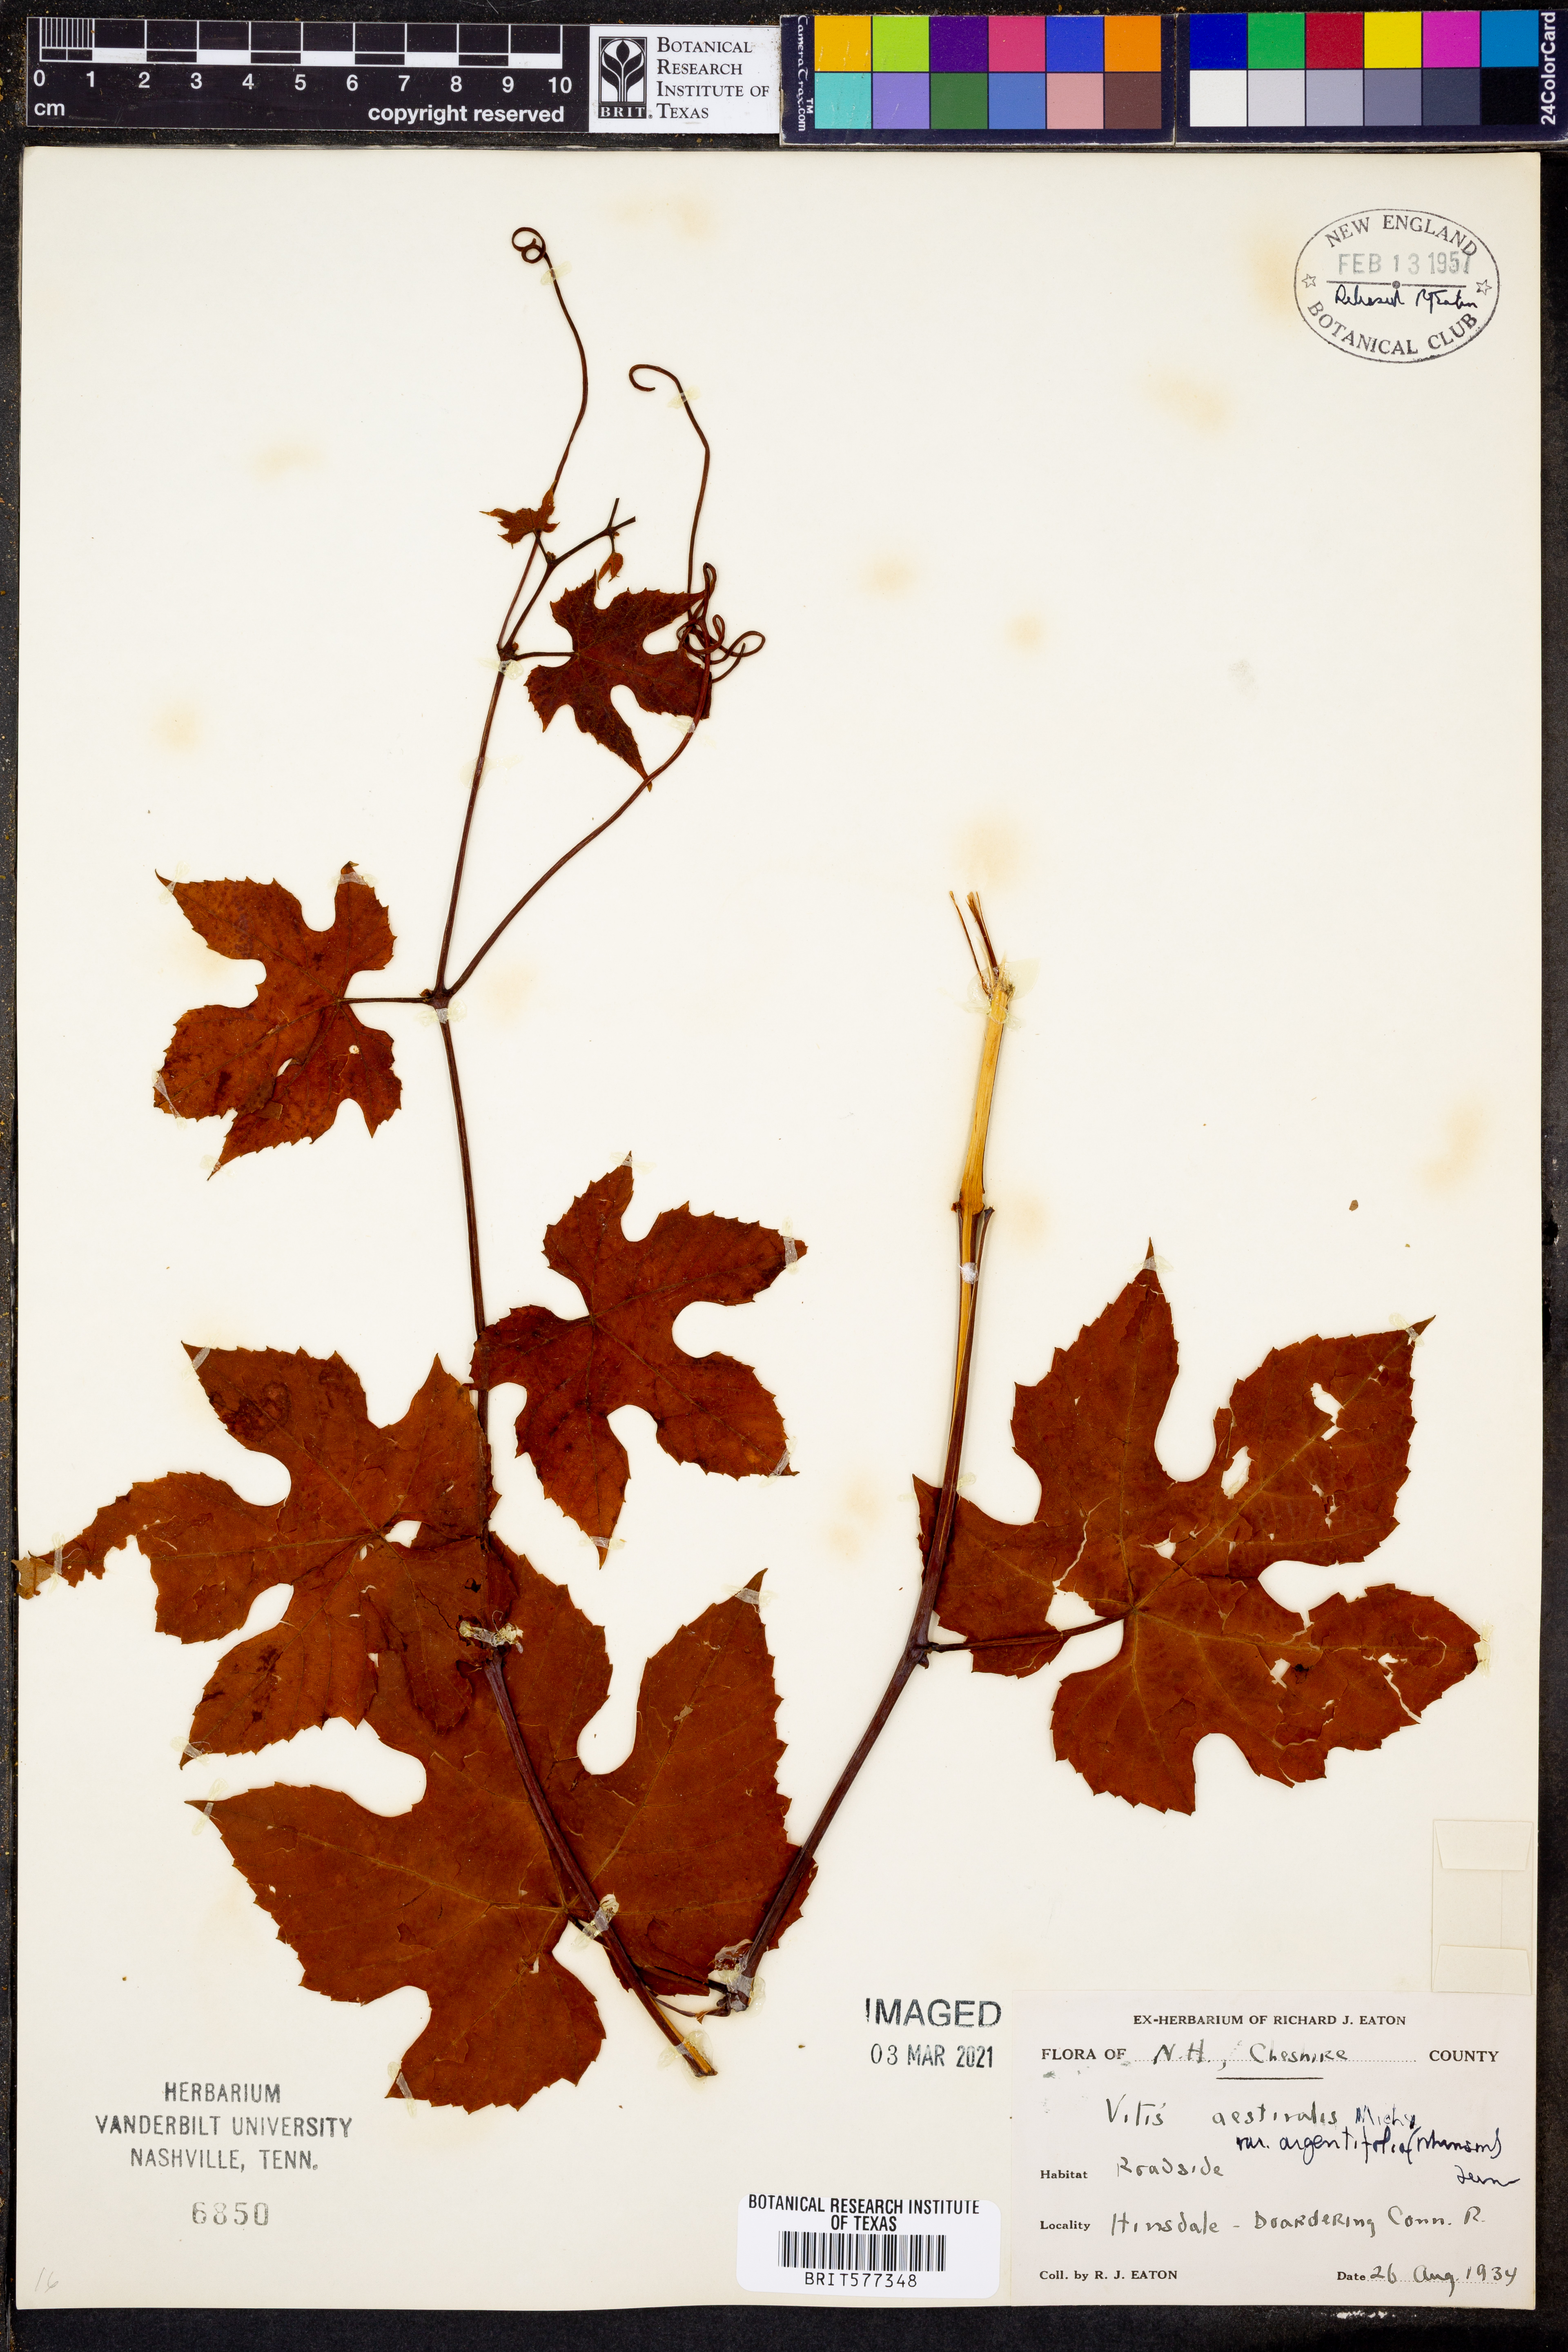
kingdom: Plantae
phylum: Tracheophyta
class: Magnoliopsida
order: Vitales
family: Vitaceae
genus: Vitis
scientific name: Vitis aestivalis
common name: Pigeon grape
